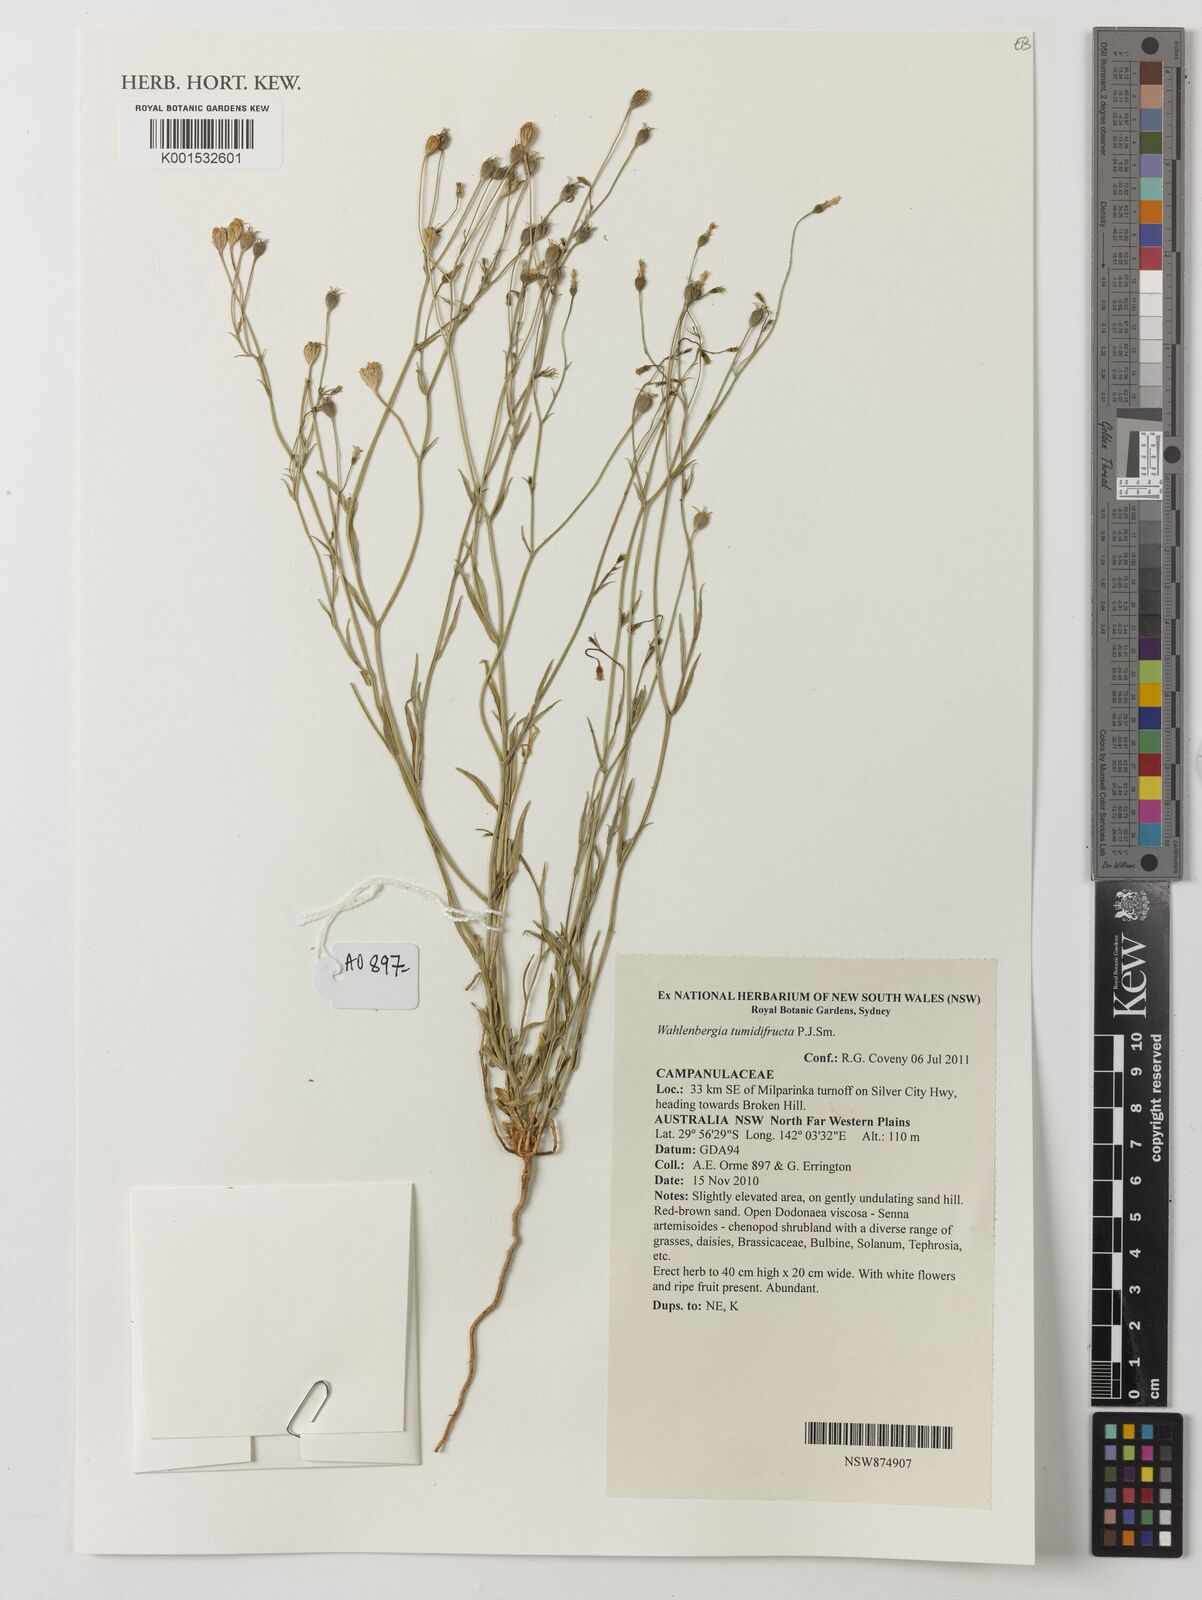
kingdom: Plantae
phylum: Tracheophyta
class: Magnoliopsida
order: Asterales
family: Campanulaceae
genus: Wahlenbergia
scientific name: Wahlenbergia tumidifructa
